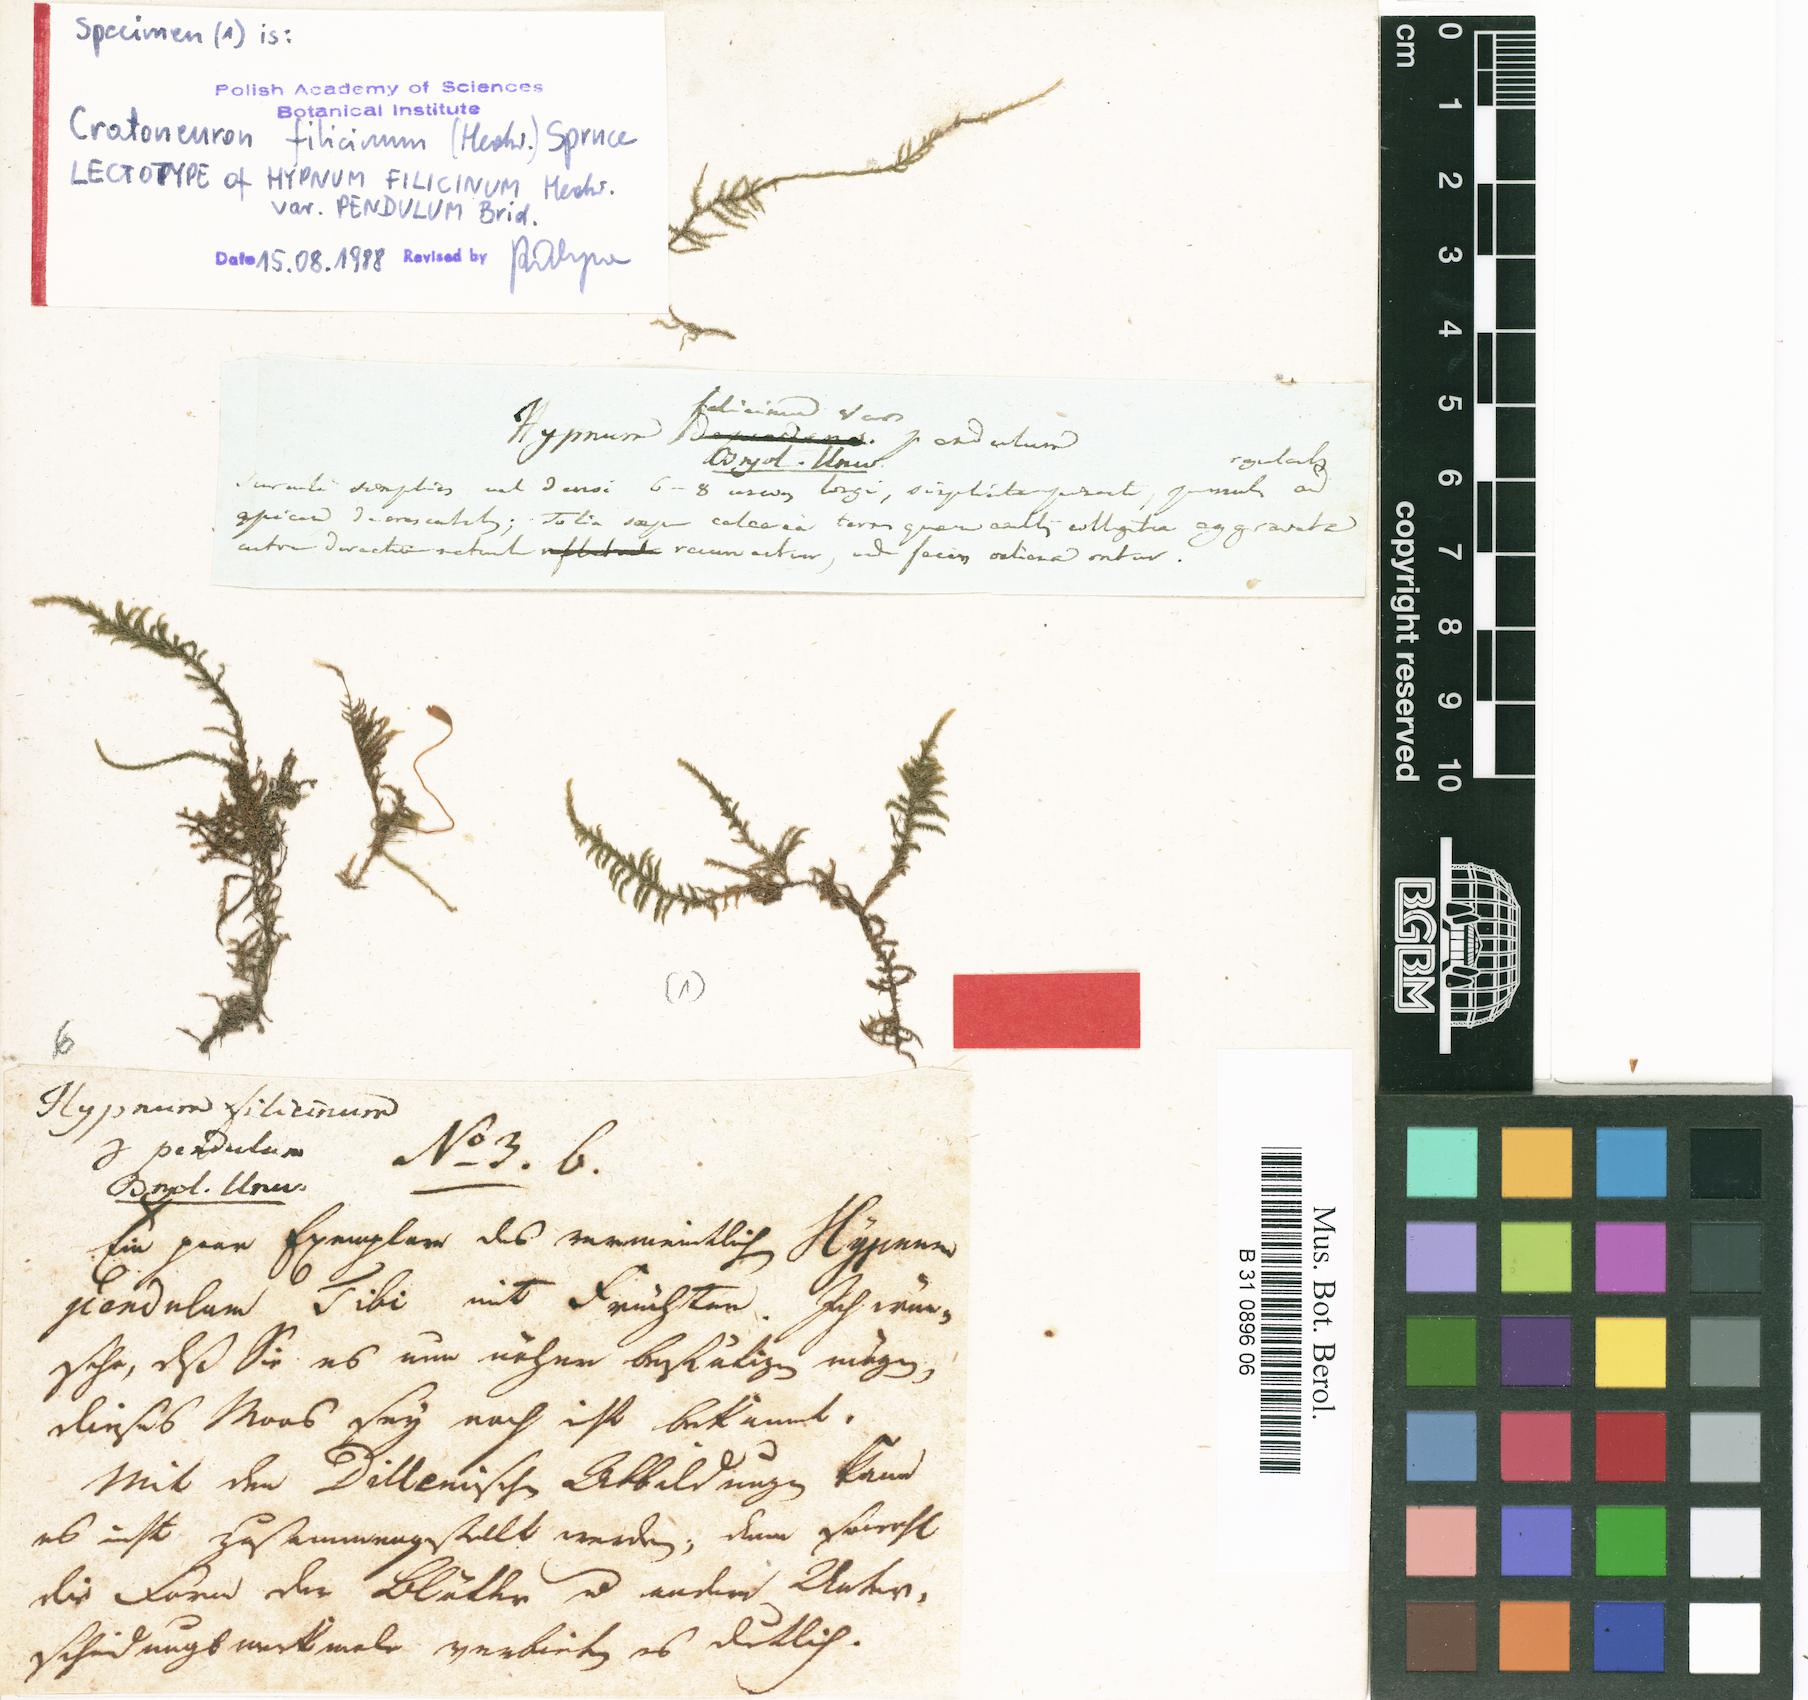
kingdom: Plantae
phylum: Bryophyta
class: Bryopsida
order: Hypnales
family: Amblystegiaceae
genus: Cratoneuron
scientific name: Cratoneuron filicinum
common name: Fern-leaved hook moss
